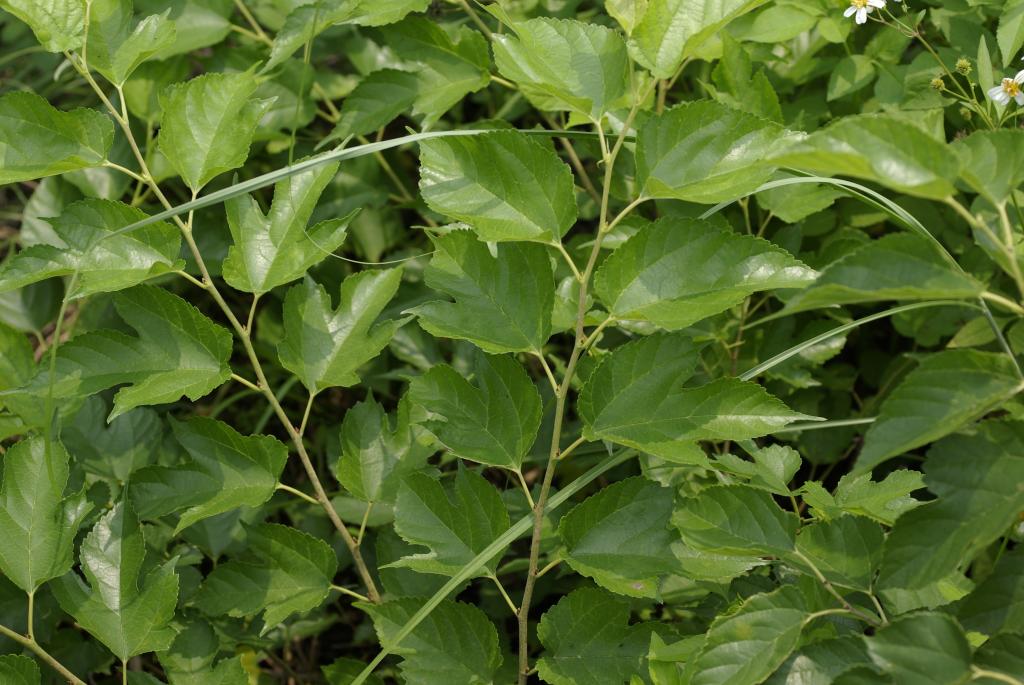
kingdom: Plantae
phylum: Tracheophyta
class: Magnoliopsida
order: Rosales
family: Moraceae
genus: Broussonetia
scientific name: Broussonetia papyrifera
